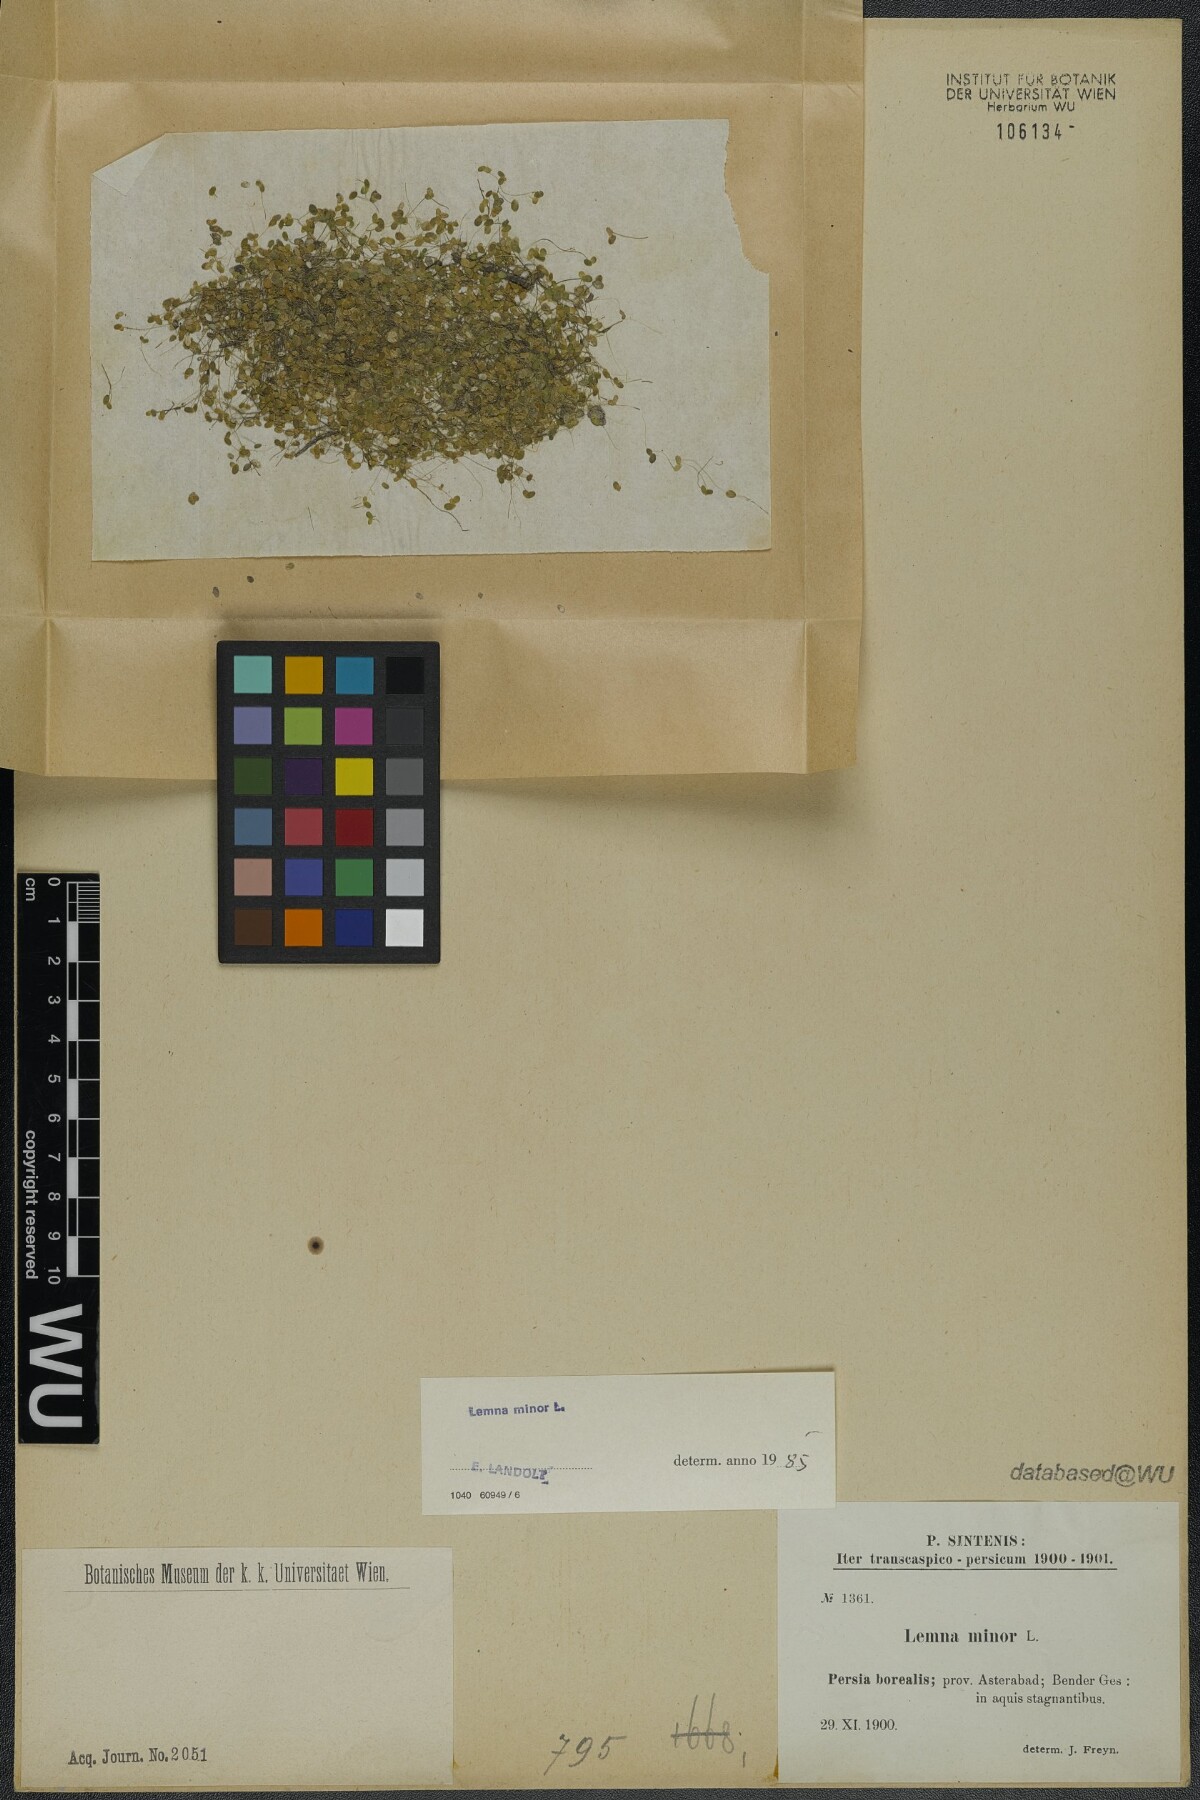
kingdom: Plantae
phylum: Tracheophyta
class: Liliopsida
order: Alismatales
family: Araceae
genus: Lemna
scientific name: Lemna minor
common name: Common duckweed
